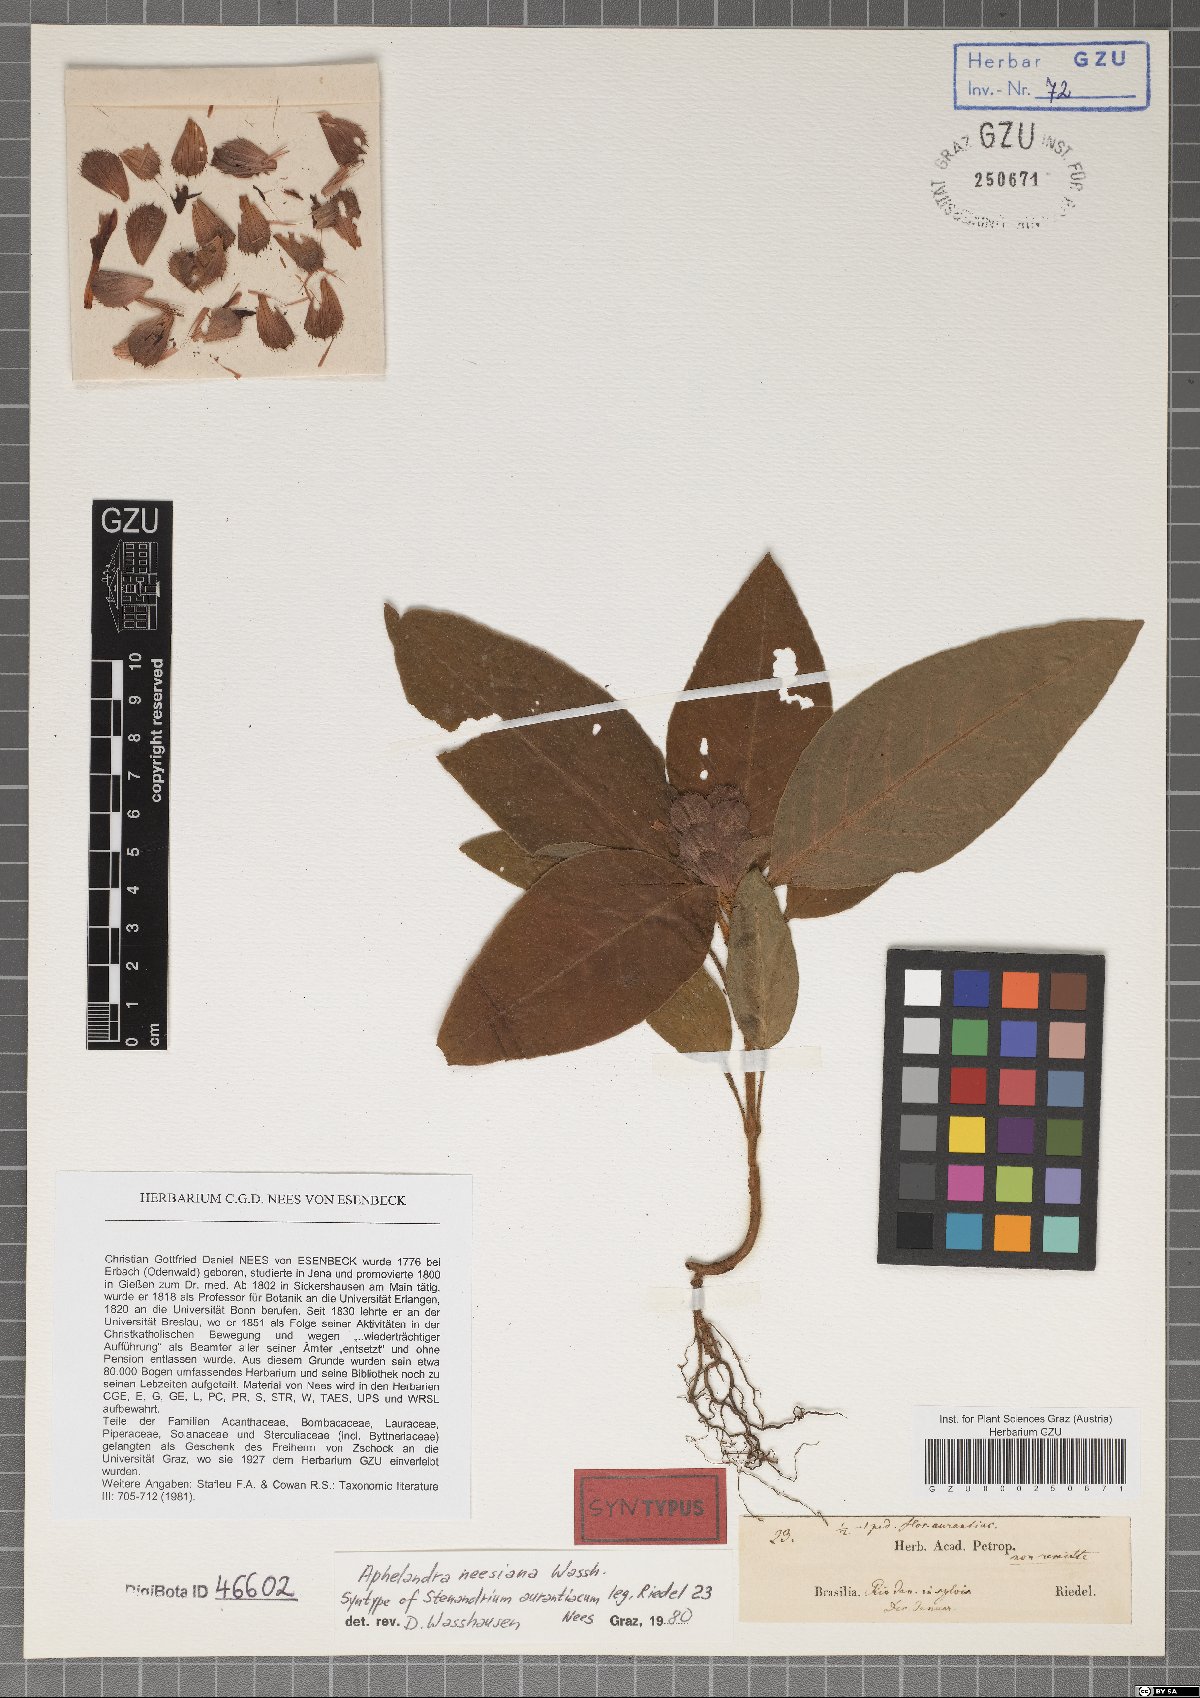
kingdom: Plantae
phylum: Tracheophyta
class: Magnoliopsida
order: Lamiales
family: Acanthaceae
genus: Aphelandra
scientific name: Aphelandra neesiana
